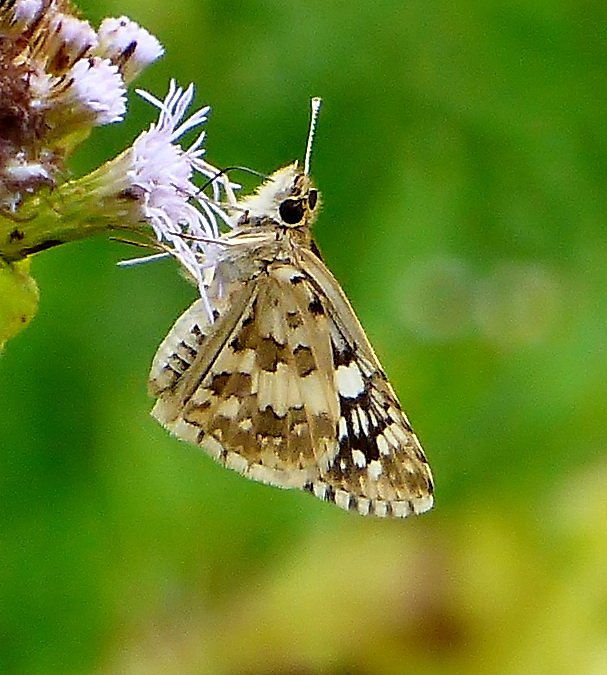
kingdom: Animalia
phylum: Arthropoda
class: Insecta
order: Lepidoptera
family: Hesperiidae
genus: Pyrgus
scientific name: Pyrgus oileus
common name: Tropical Checkered-Skipper
